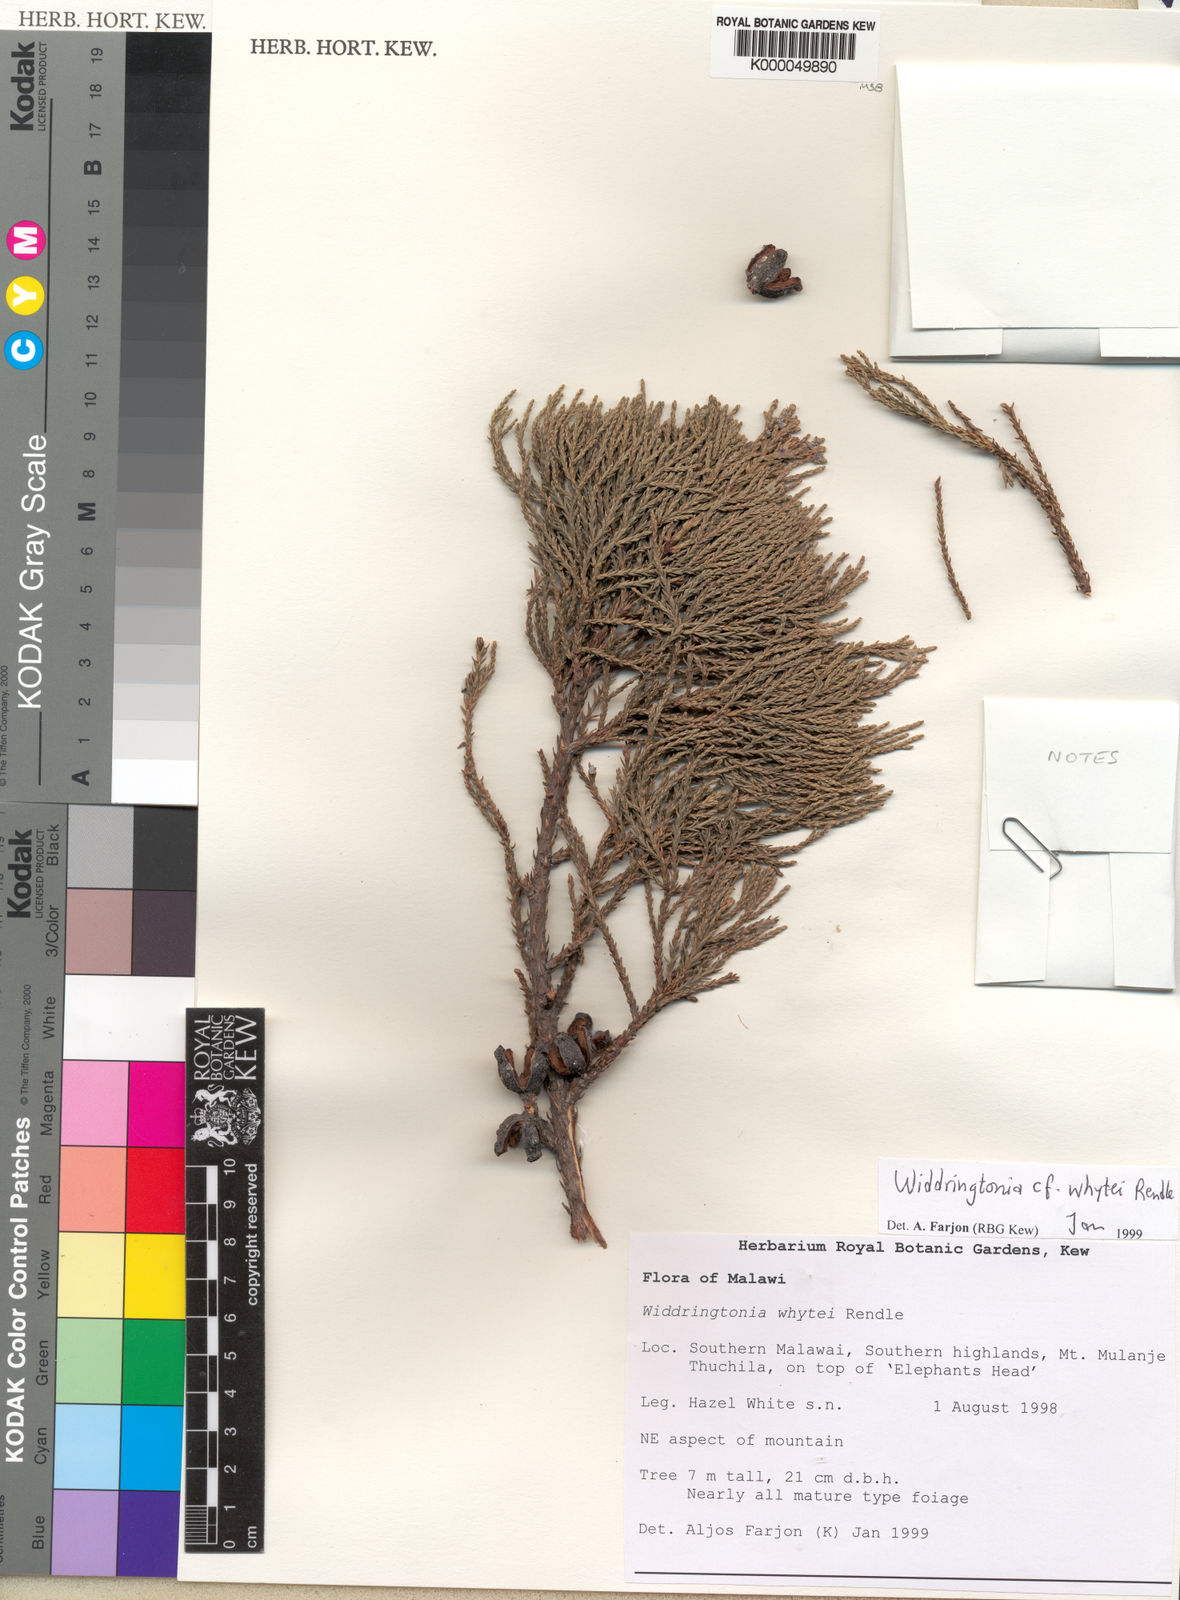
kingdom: Plantae
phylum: Tracheophyta
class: Pinopsida
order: Pinales
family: Cupressaceae
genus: Widdringtonia
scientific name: Widdringtonia whytei
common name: Mulanje cedar
